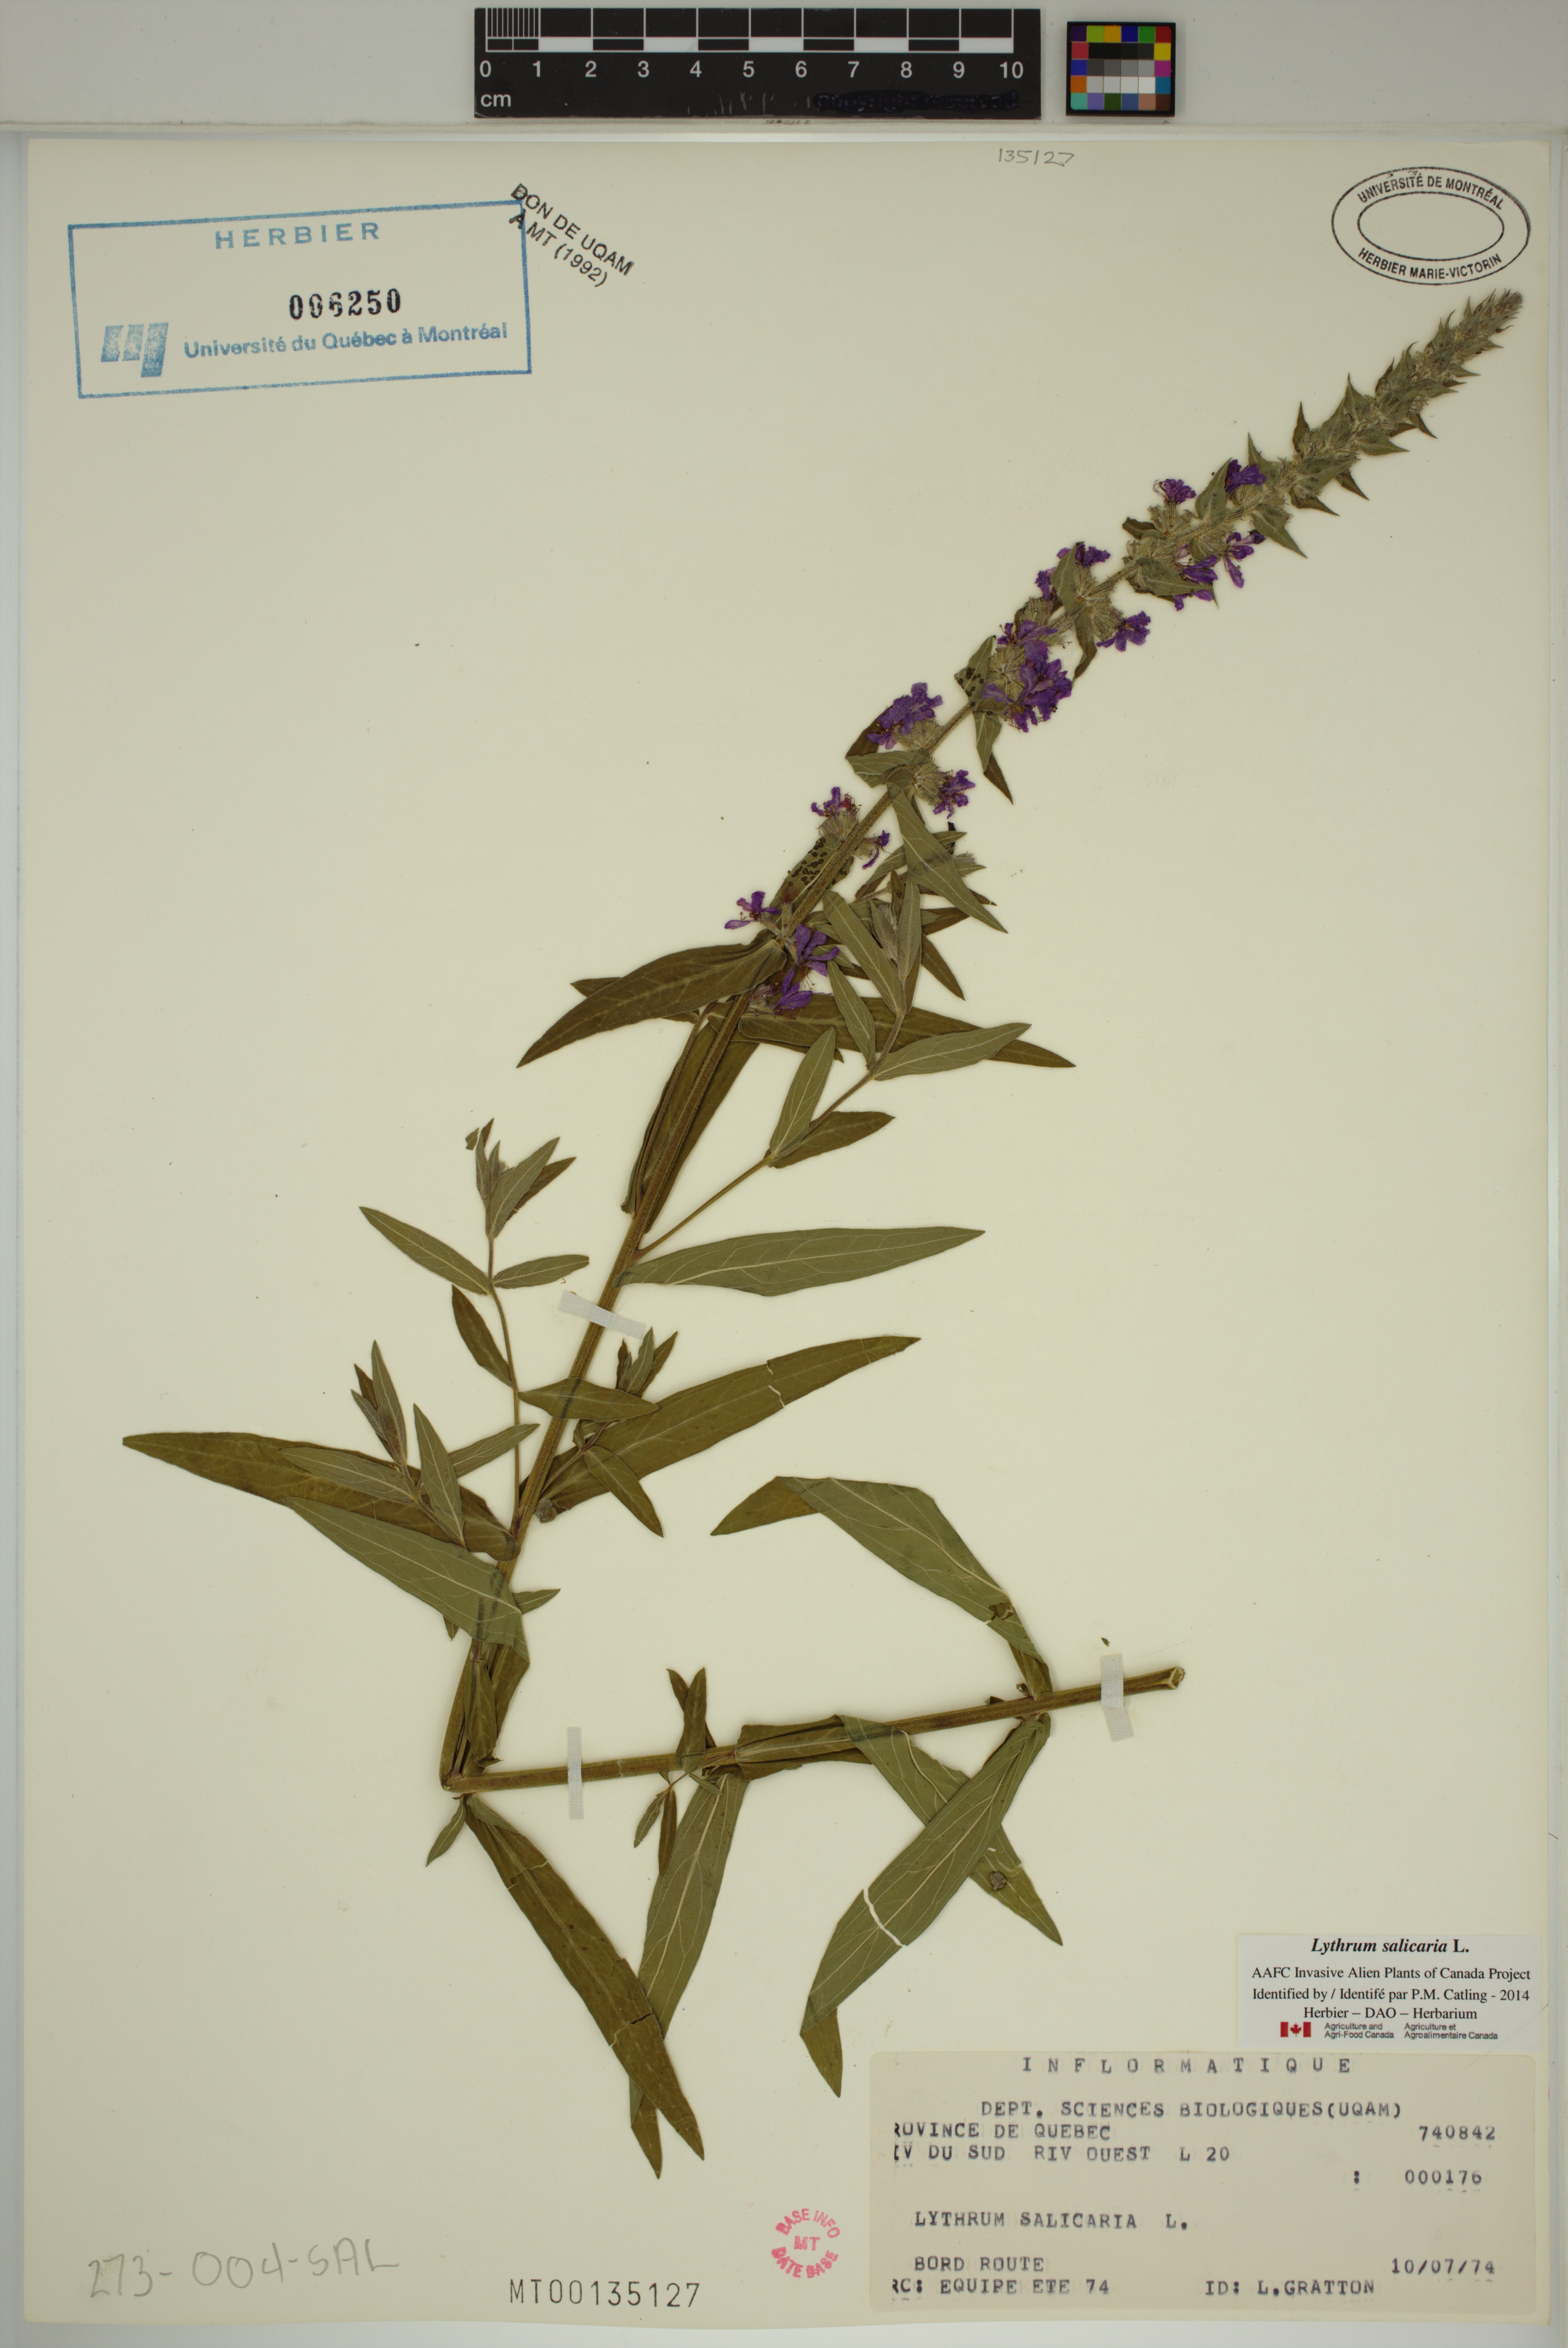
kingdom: Plantae
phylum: Tracheophyta
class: Magnoliopsida
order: Myrtales
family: Lythraceae
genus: Lythrum
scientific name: Lythrum salicaria
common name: Purple loosestrife
